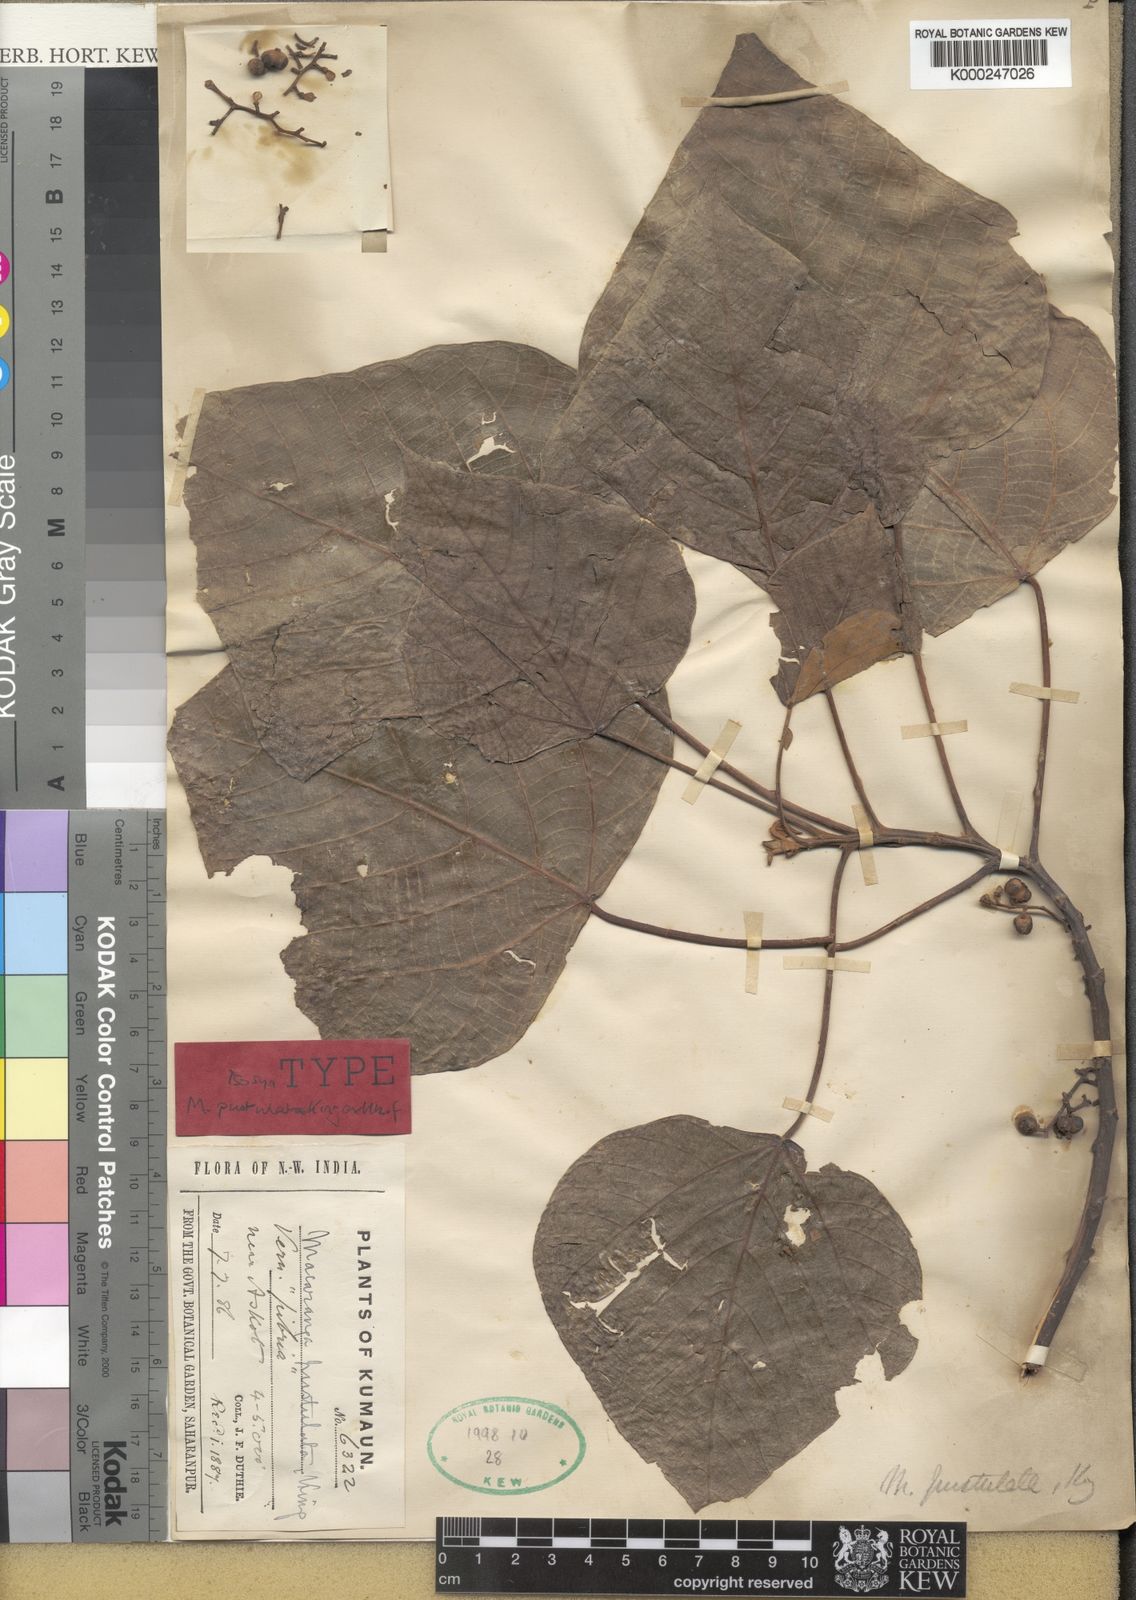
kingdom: Plantae
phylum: Tracheophyta
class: Magnoliopsida
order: Malpighiales
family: Euphorbiaceae
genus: Macaranga
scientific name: Macaranga denticulata
